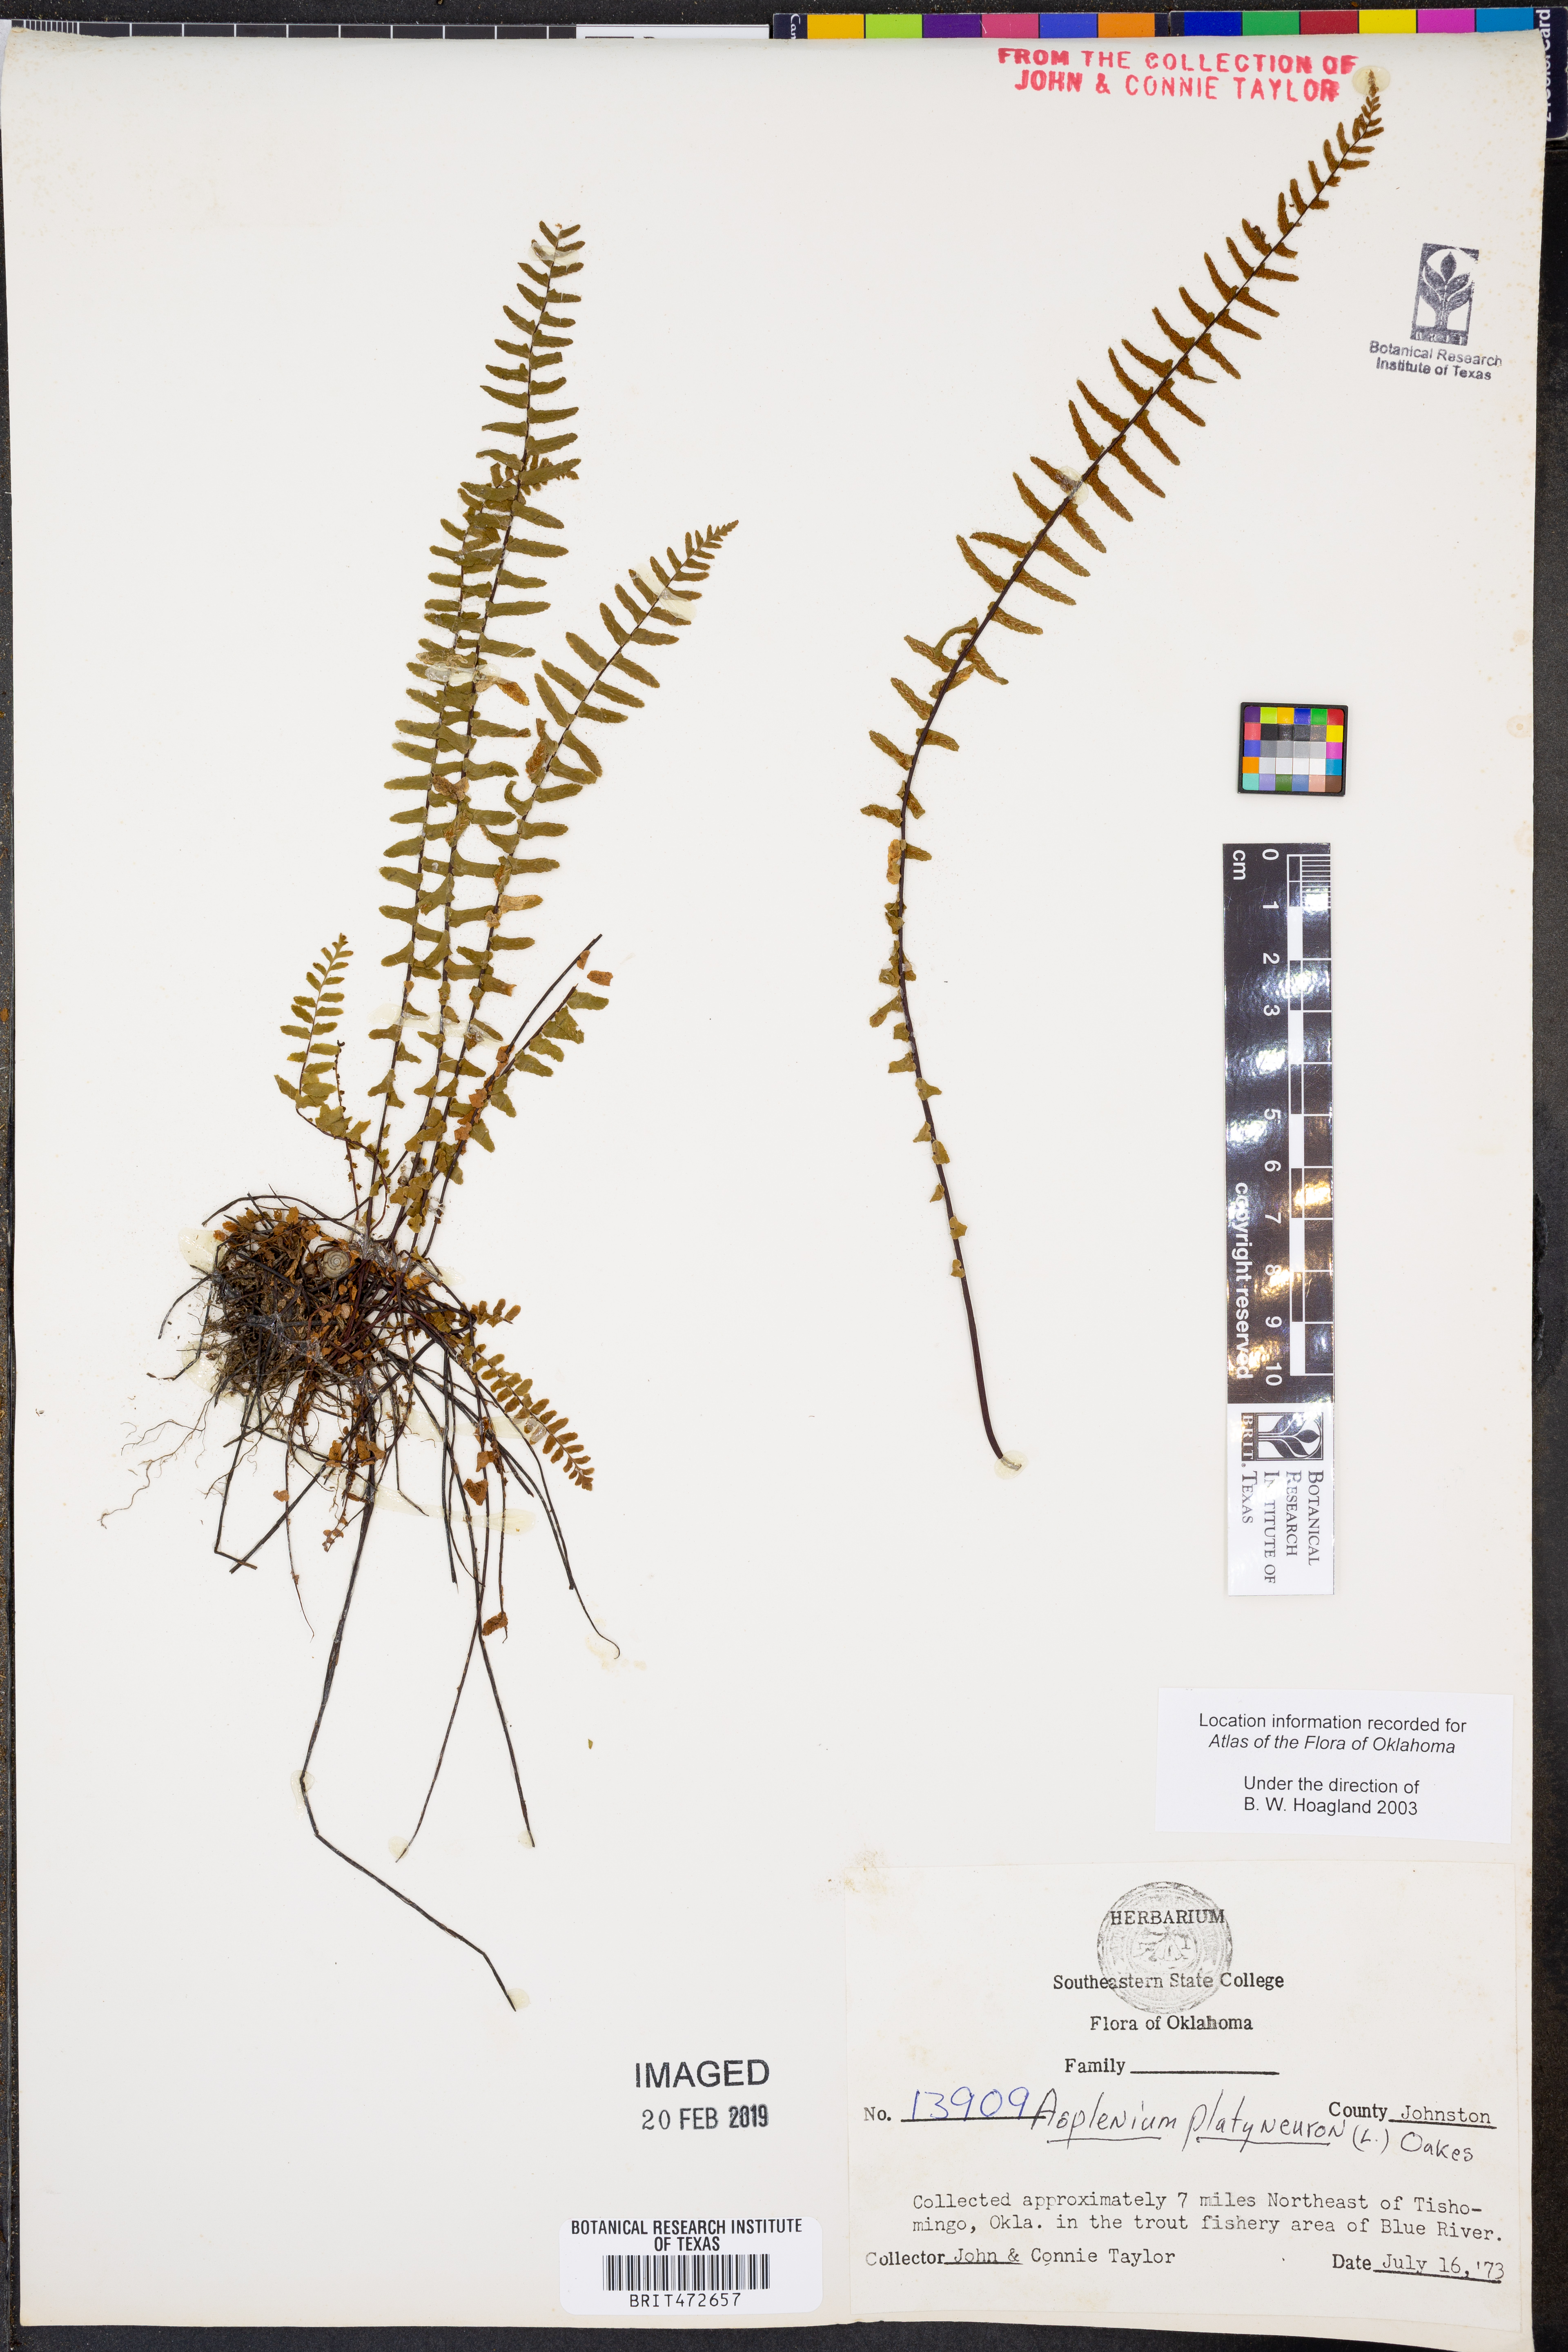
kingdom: Plantae
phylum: Tracheophyta
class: Polypodiopsida
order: Polypodiales
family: Aspleniaceae
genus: Asplenium
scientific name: Asplenium platyneuron
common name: Ebony spleenwort
